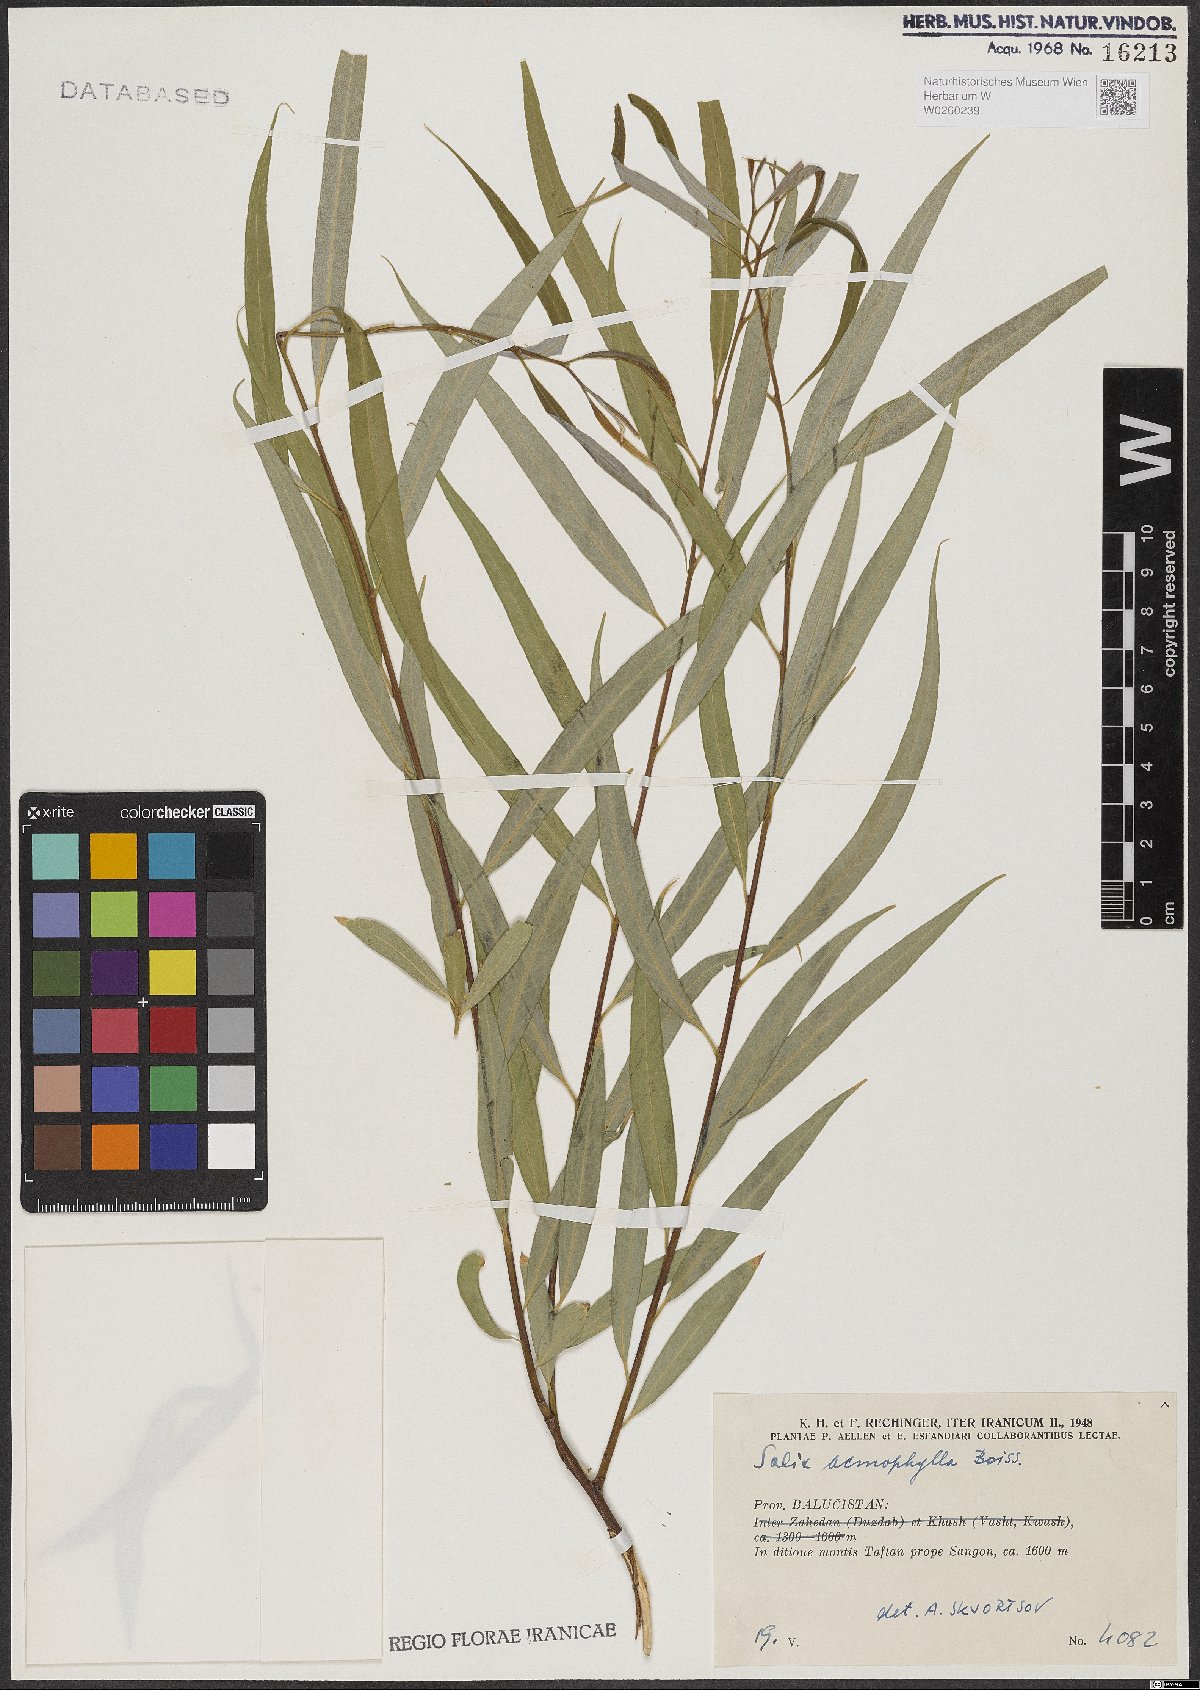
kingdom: Plantae
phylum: Tracheophyta
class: Magnoliopsida
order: Malpighiales
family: Salicaceae
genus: Salix
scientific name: Salix acmophylla
